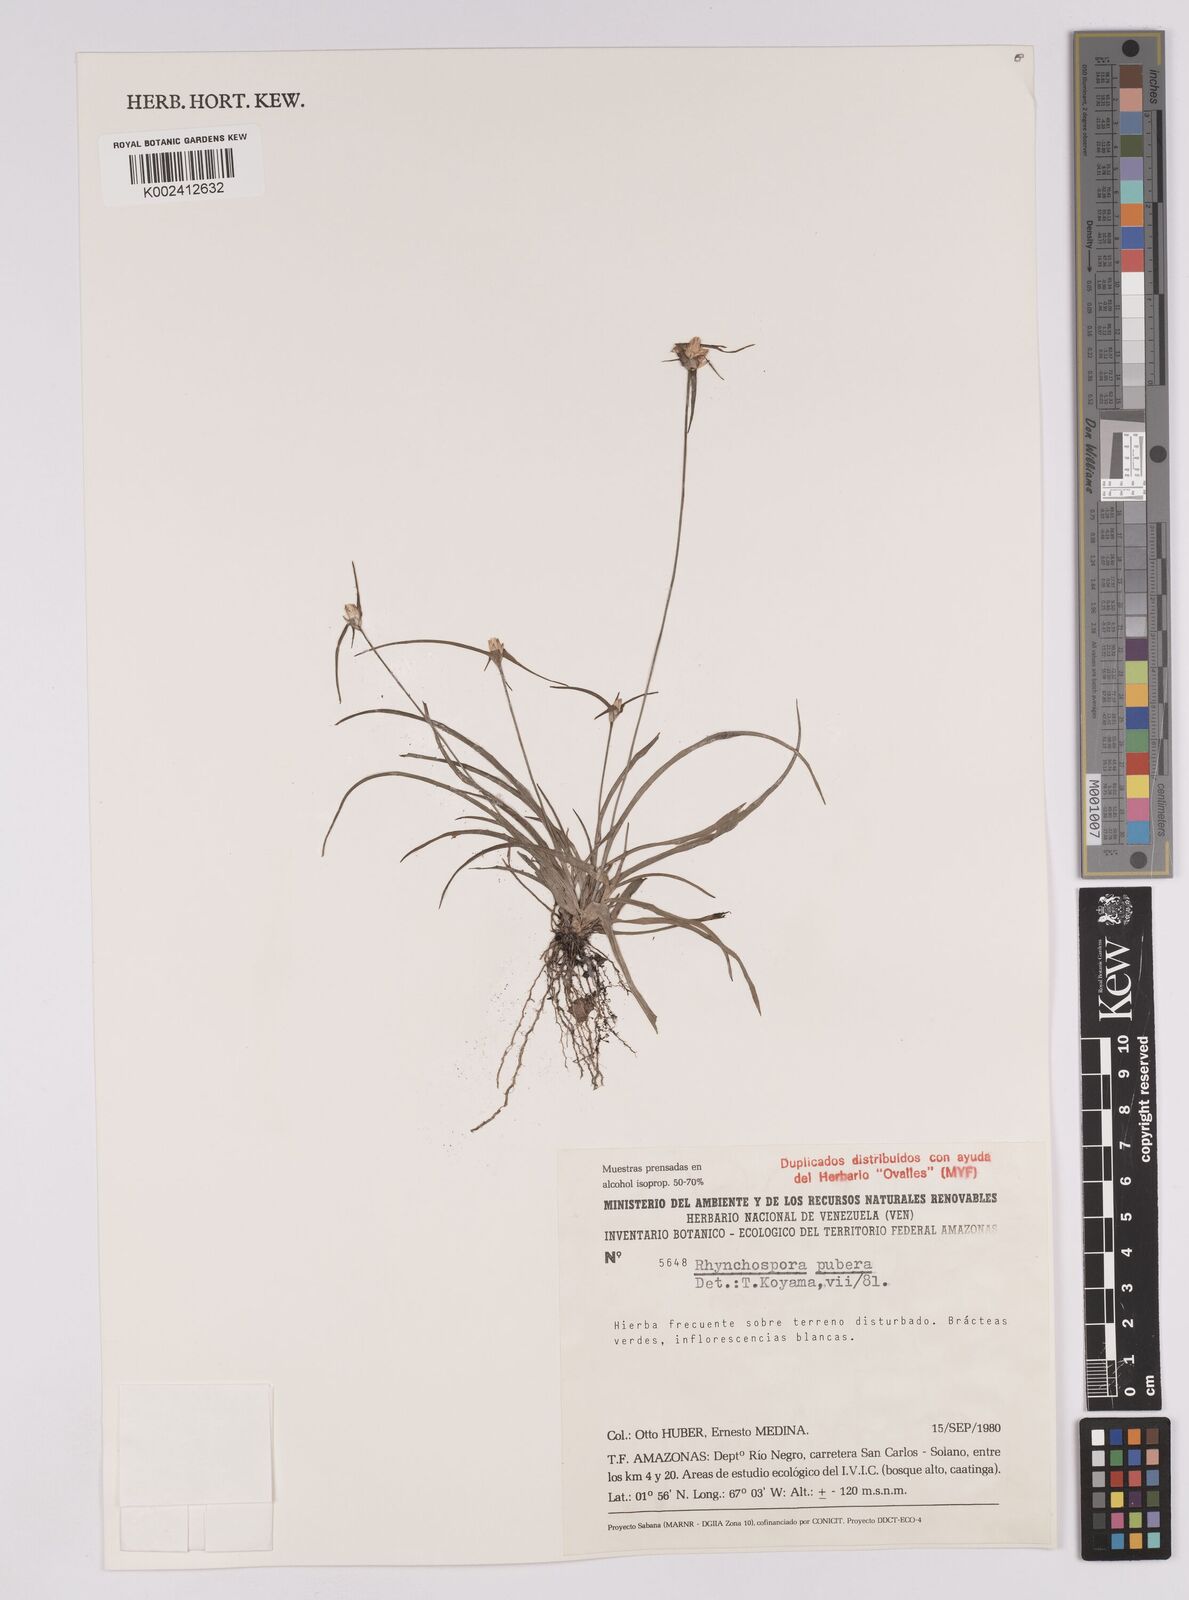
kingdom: Plantae
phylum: Tracheophyta
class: Liliopsida
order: Poales
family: Cyperaceae
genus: Rhynchospora
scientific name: Rhynchospora pubera
